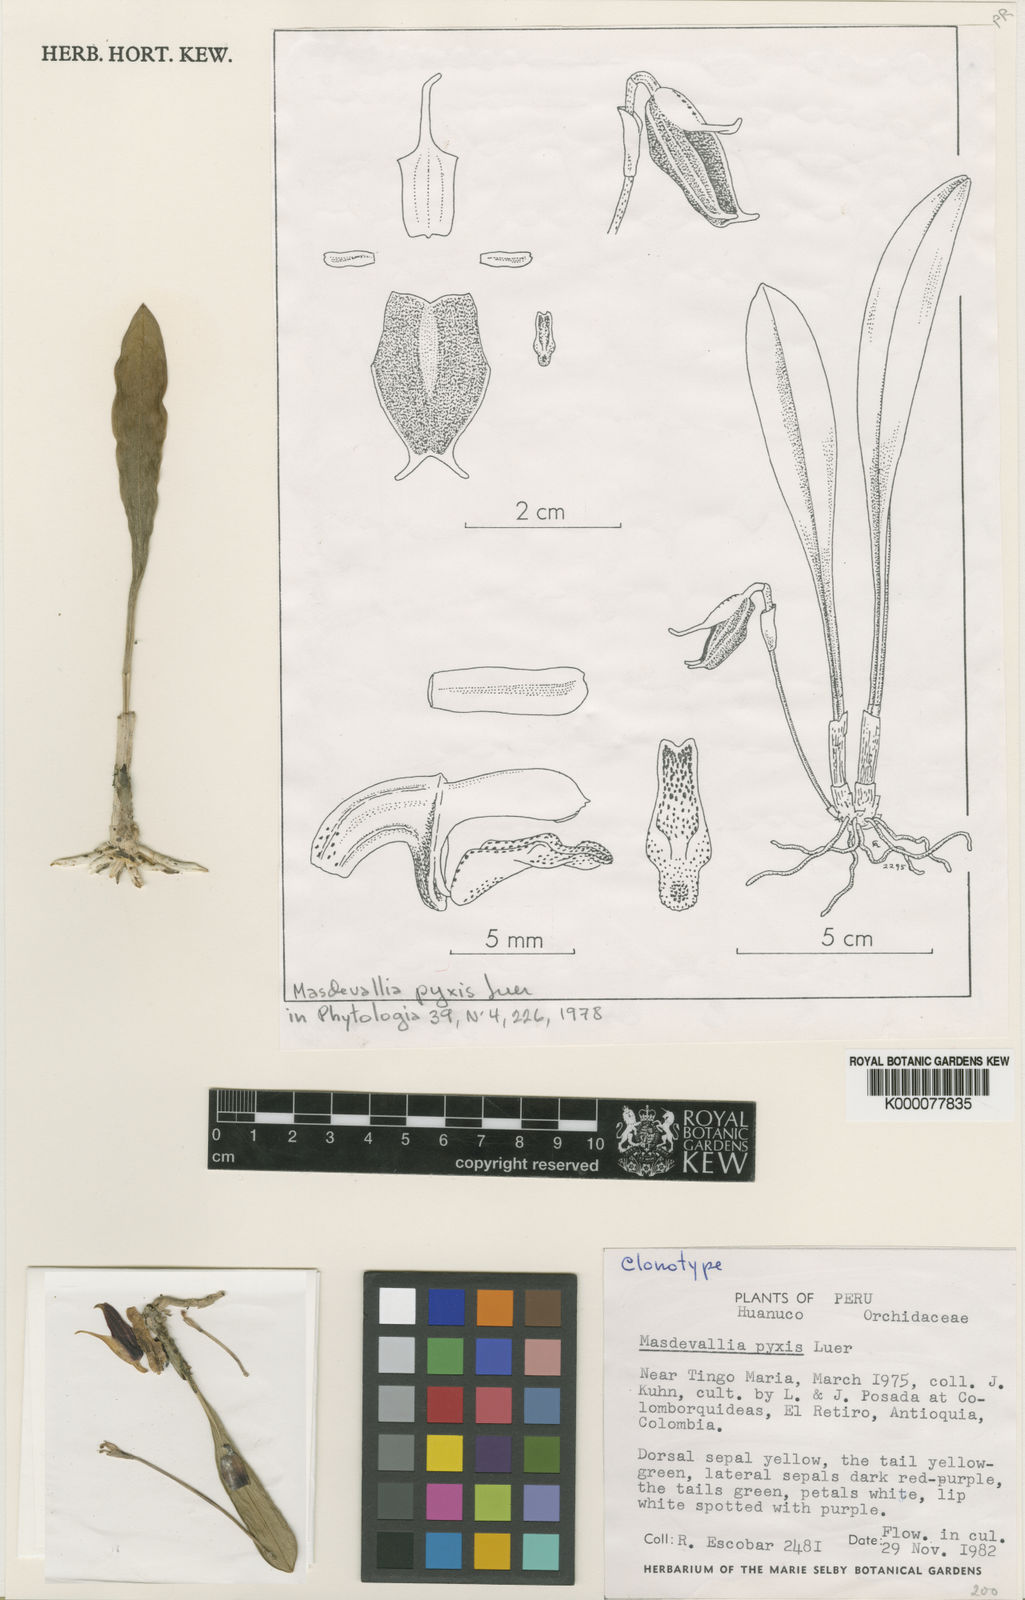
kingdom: Plantae
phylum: Tracheophyta
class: Liliopsida
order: Asparagales
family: Orchidaceae
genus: Masdevallia
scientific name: Masdevallia pyxis
